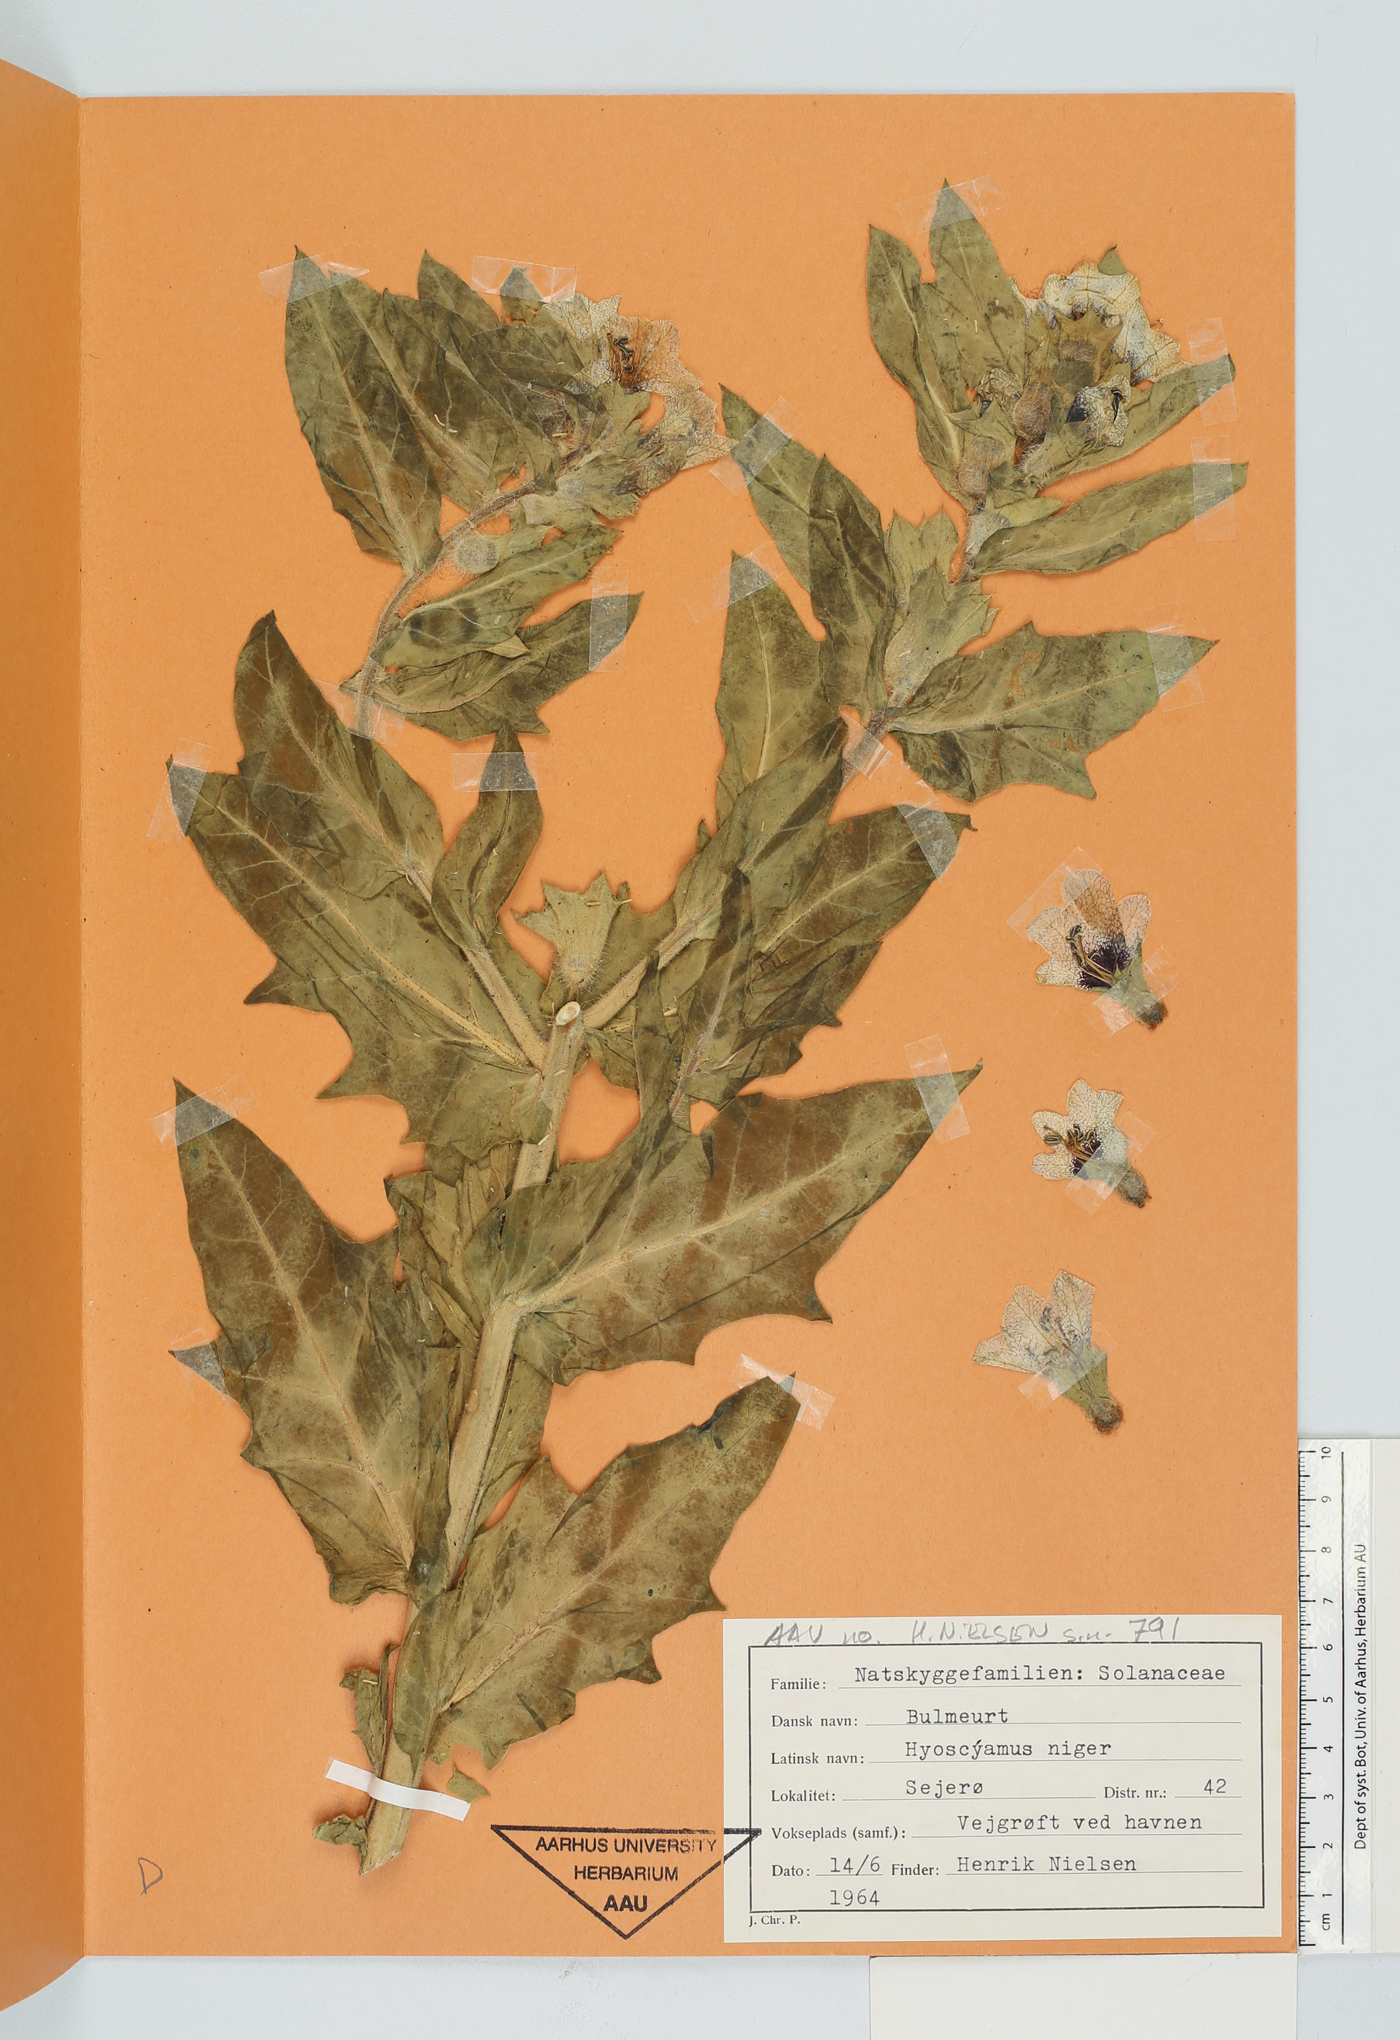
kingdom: Plantae
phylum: Tracheophyta
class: Magnoliopsida
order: Solanales
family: Solanaceae
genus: Hyoscyamus
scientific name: Hyoscyamus niger
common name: Henbane
